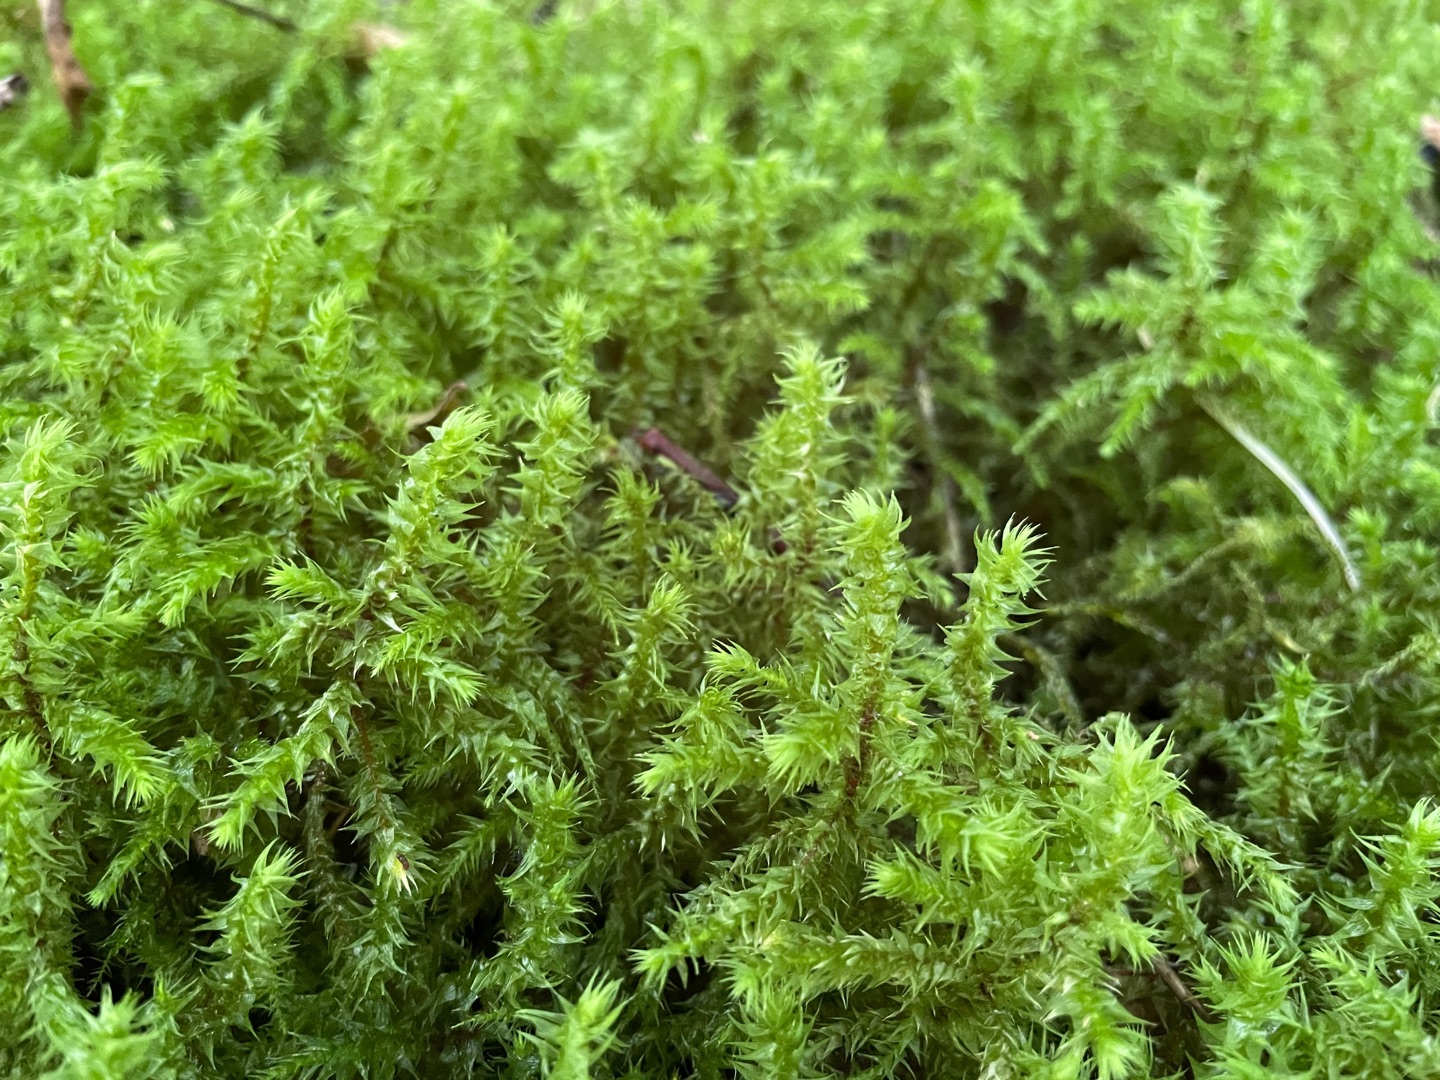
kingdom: Plantae
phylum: Bryophyta
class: Bryopsida
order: Hypnales
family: Hylocomiaceae
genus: Hylocomiadelphus
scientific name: Hylocomiadelphus triquetrus
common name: Stor kransemos
